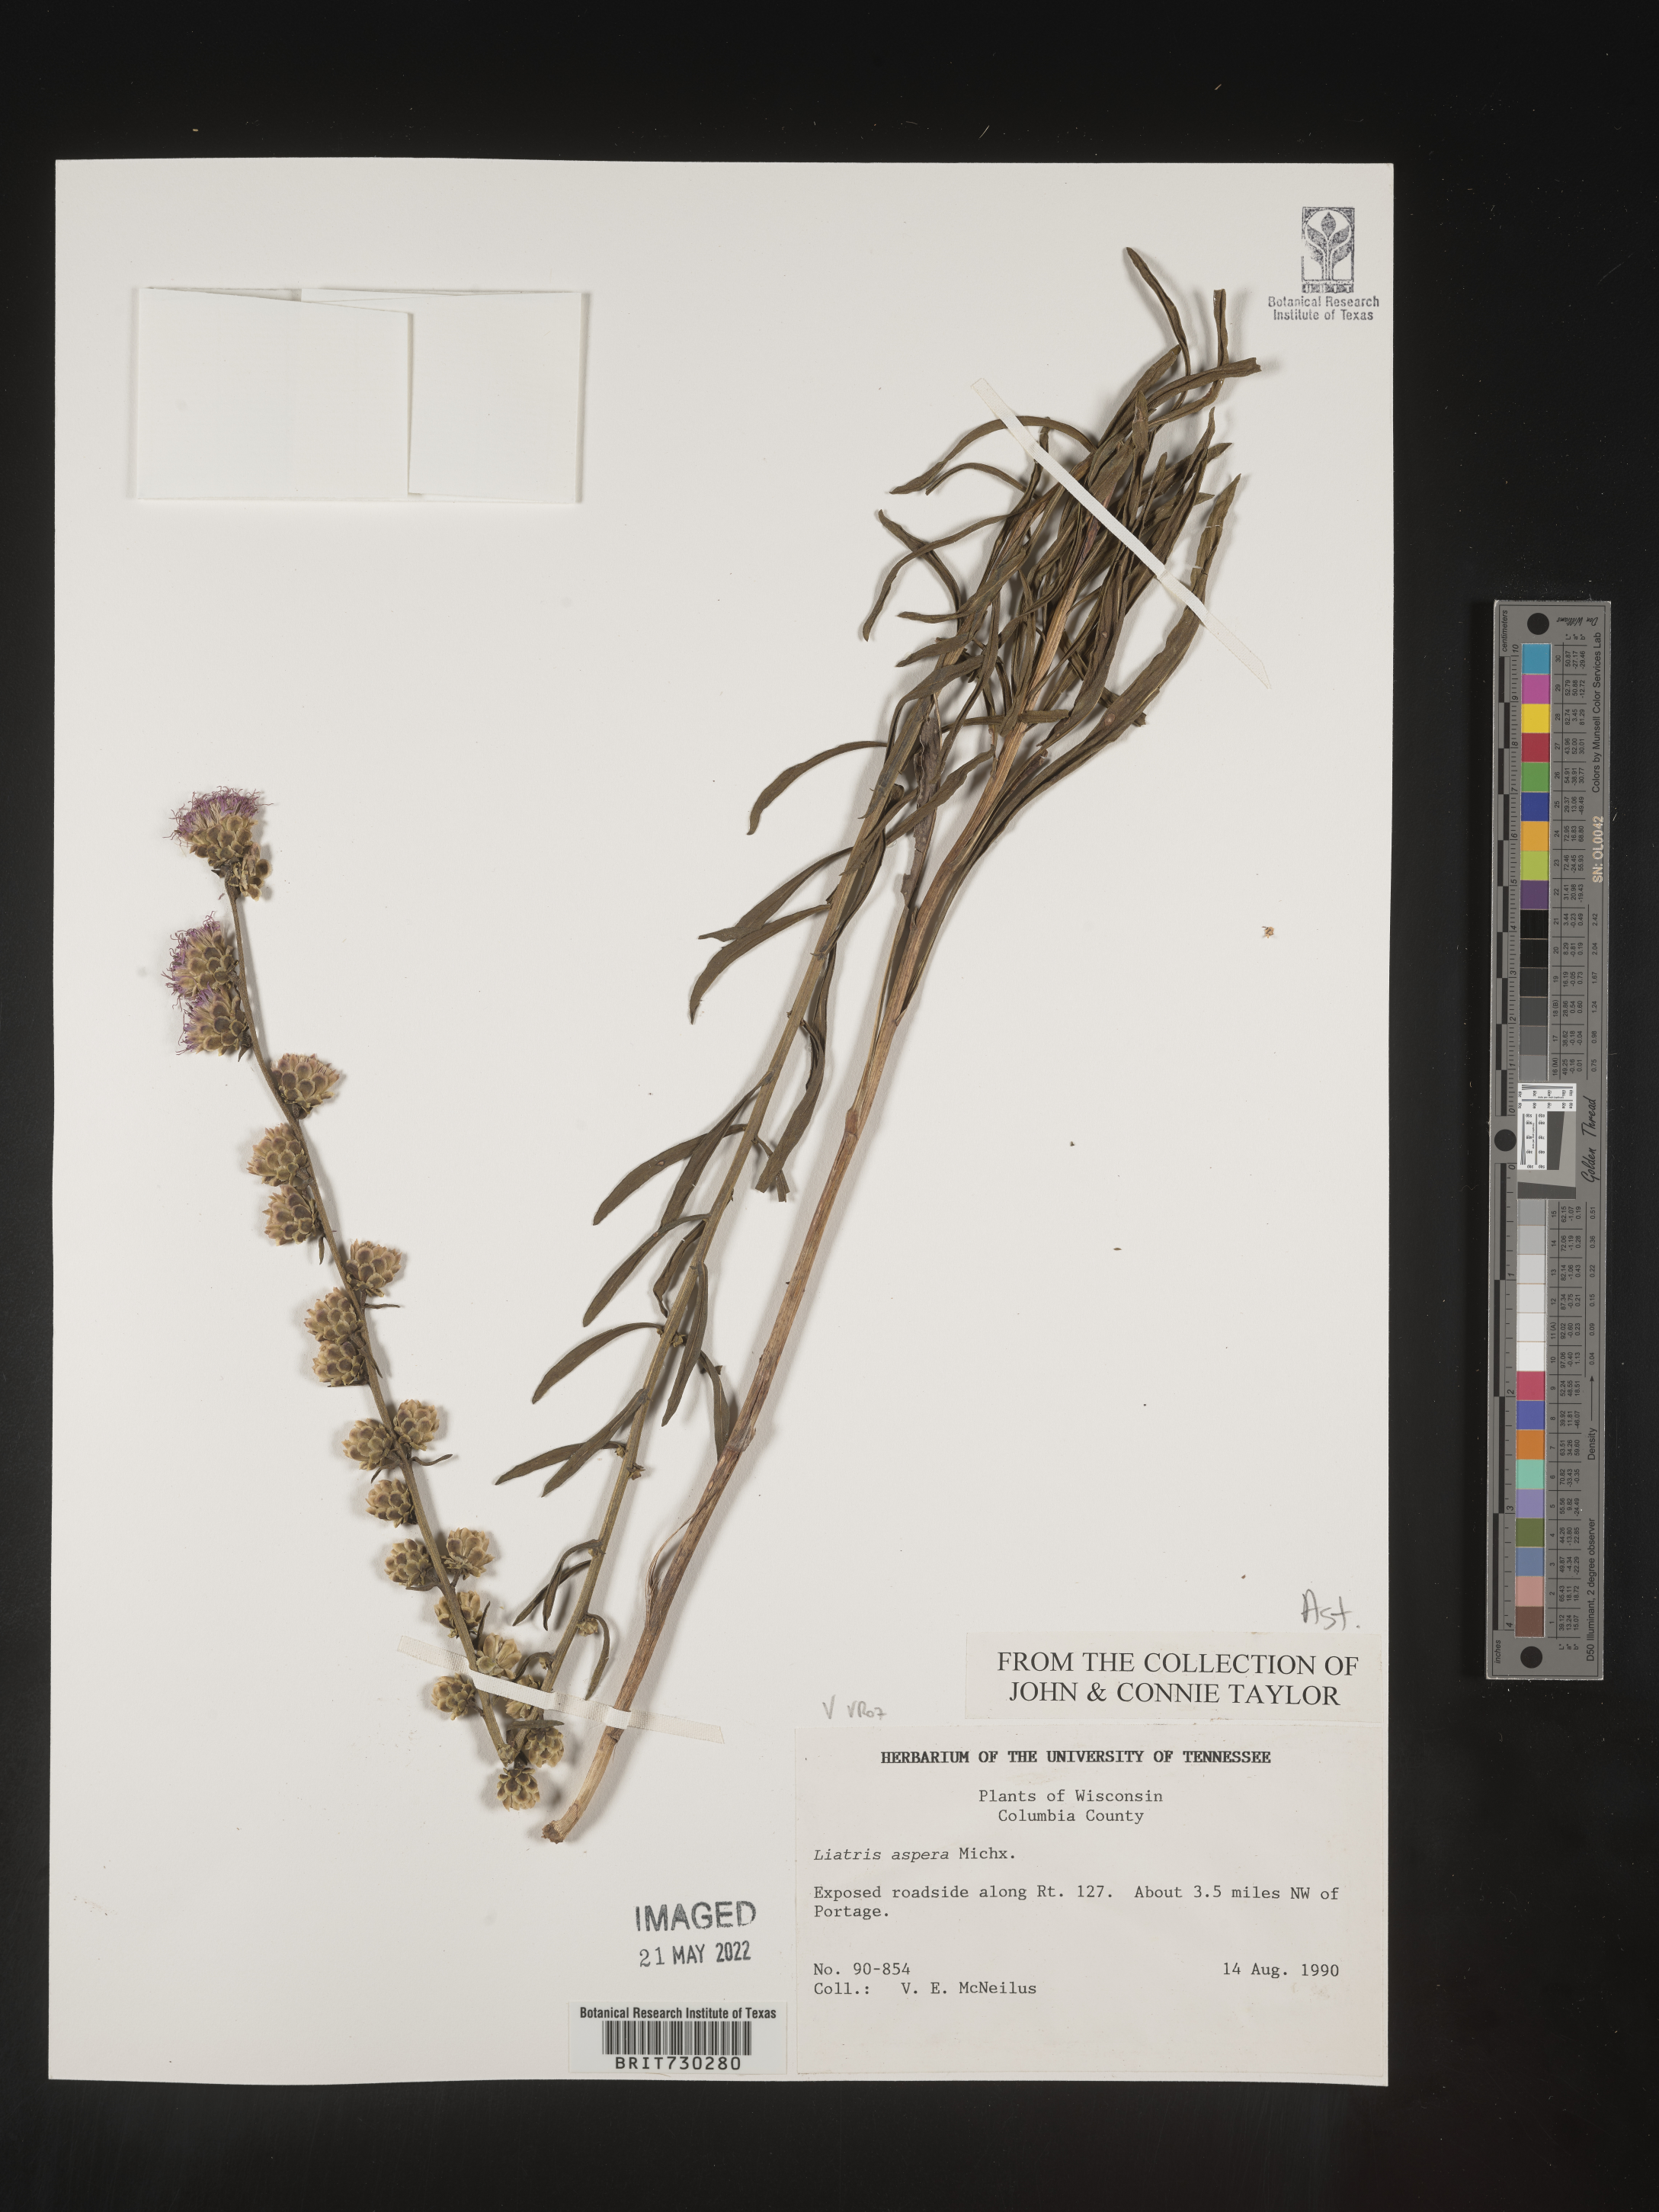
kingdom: Plantae
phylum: Tracheophyta
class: Magnoliopsida
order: Asterales
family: Asteraceae
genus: Liatris
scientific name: Liatris aspera
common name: Lacerate blazing-star
